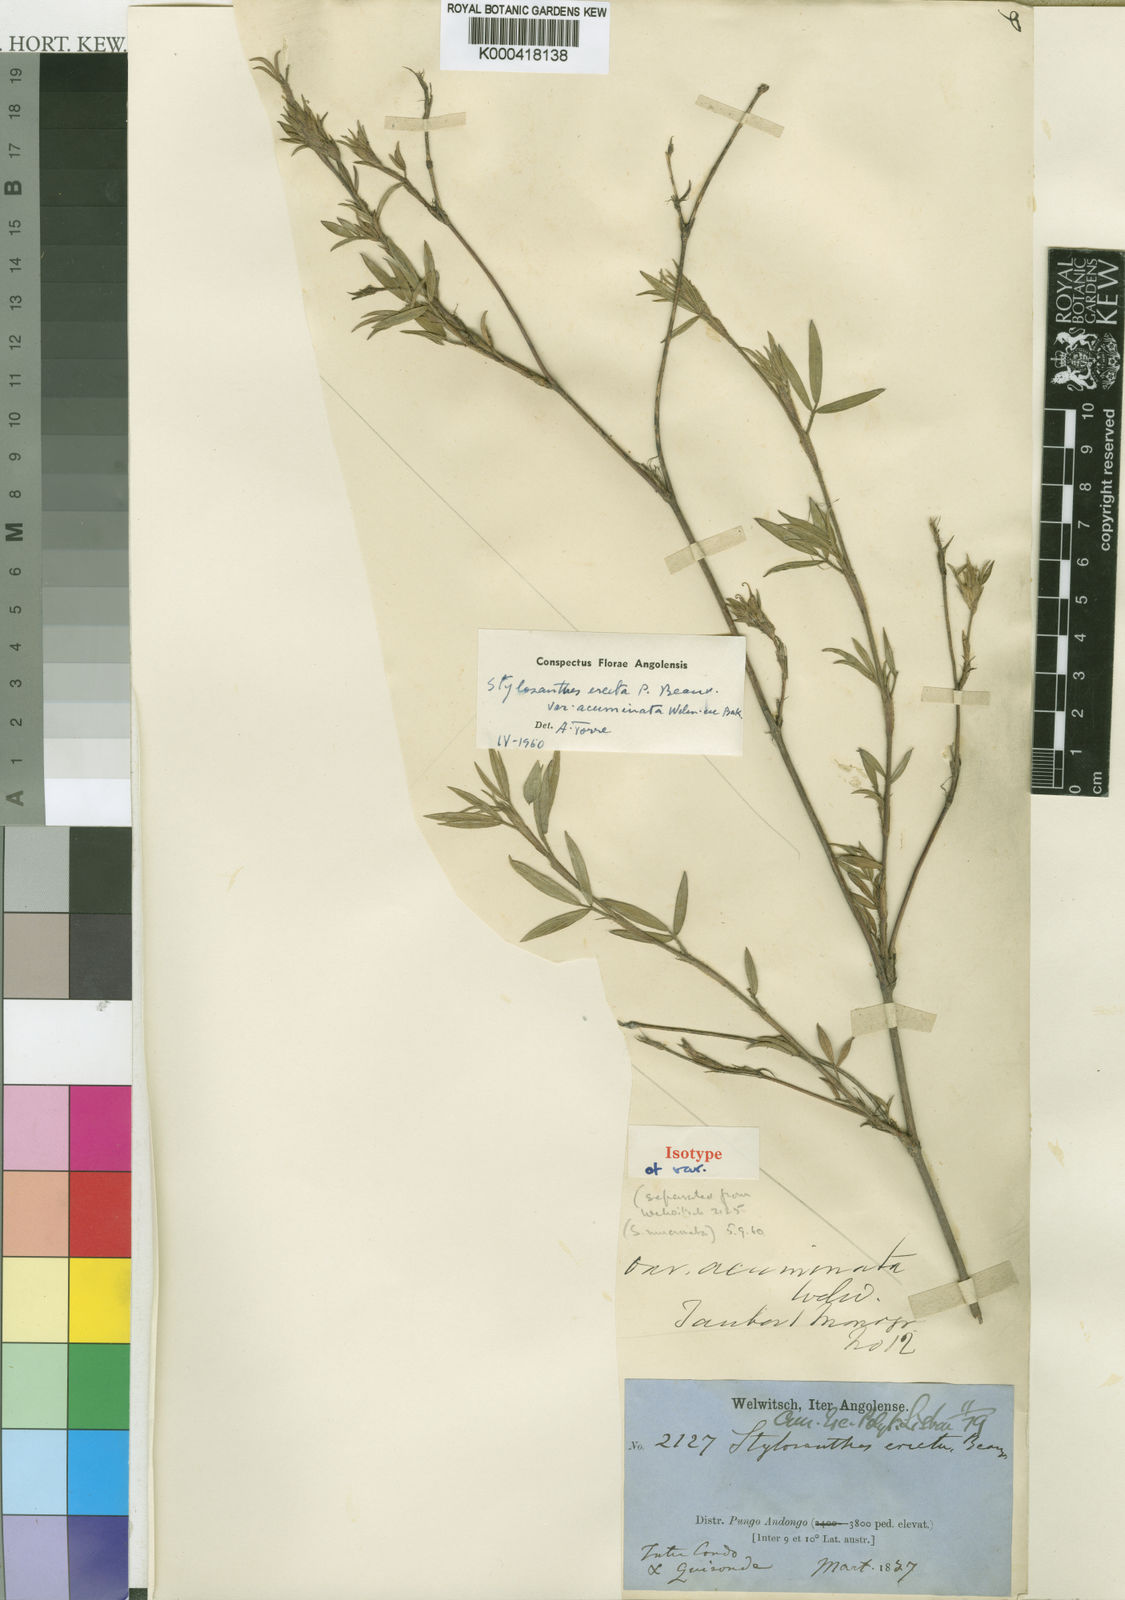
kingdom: Plantae
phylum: Tracheophyta
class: Magnoliopsida
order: Fabales
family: Fabaceae
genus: Stylosanthes
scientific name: Stylosanthes erecta
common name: Nigerian stylo
